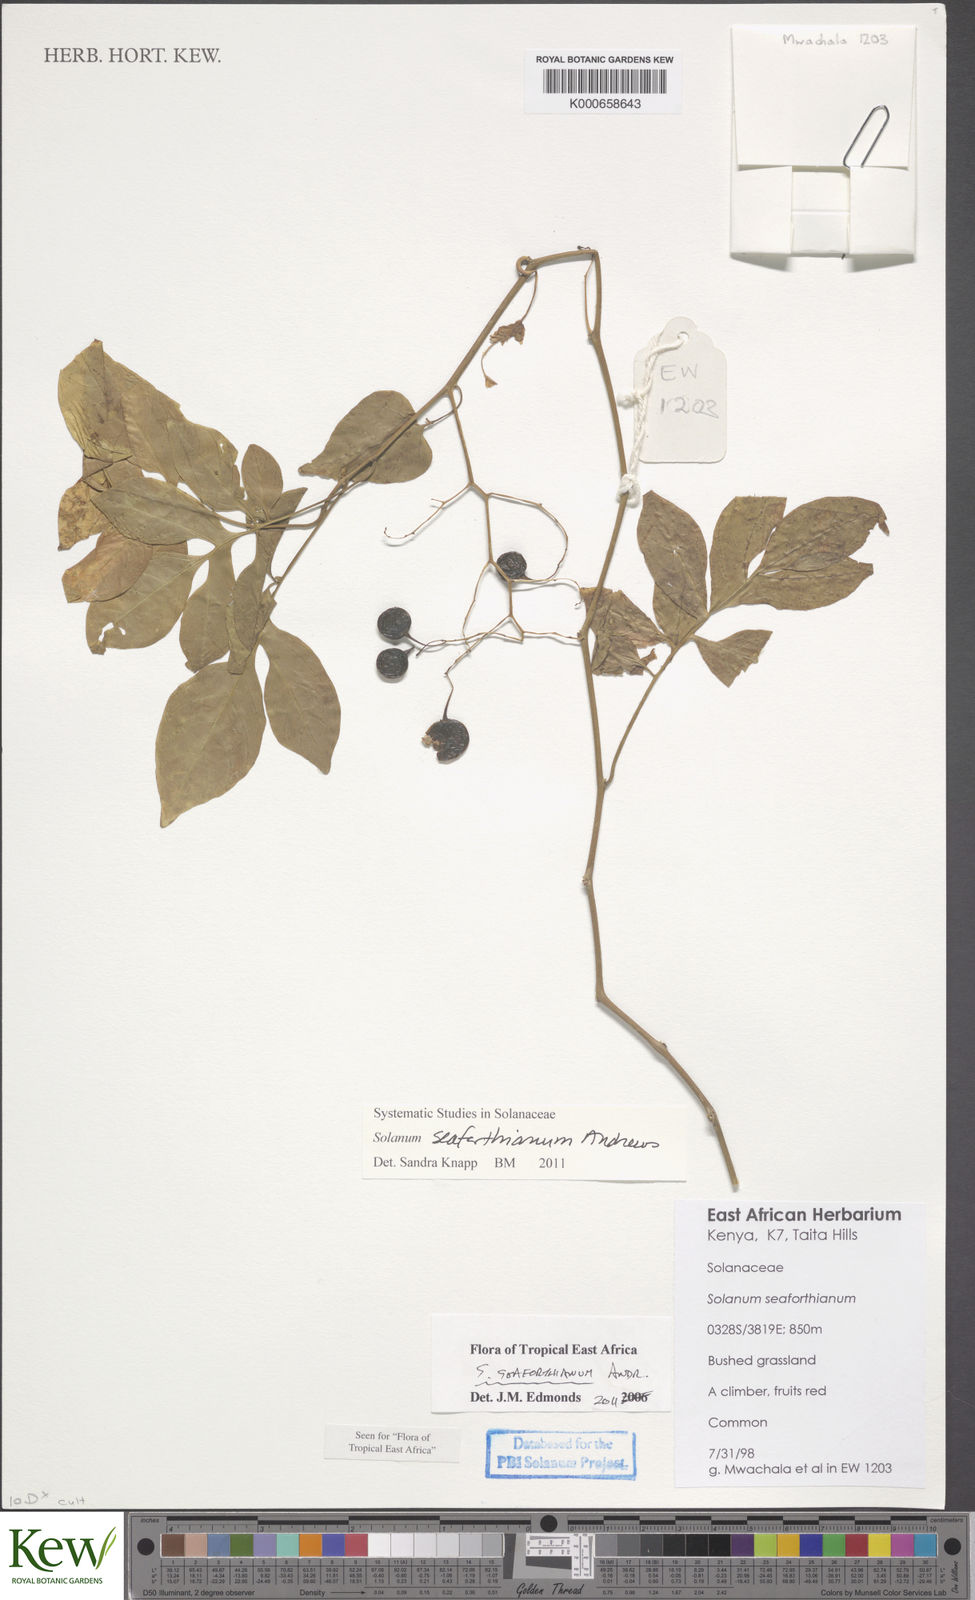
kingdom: Plantae
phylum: Tracheophyta
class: Magnoliopsida
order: Solanales
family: Solanaceae
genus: Solanum
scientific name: Solanum seaforthianum
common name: Brazilian nightshade
